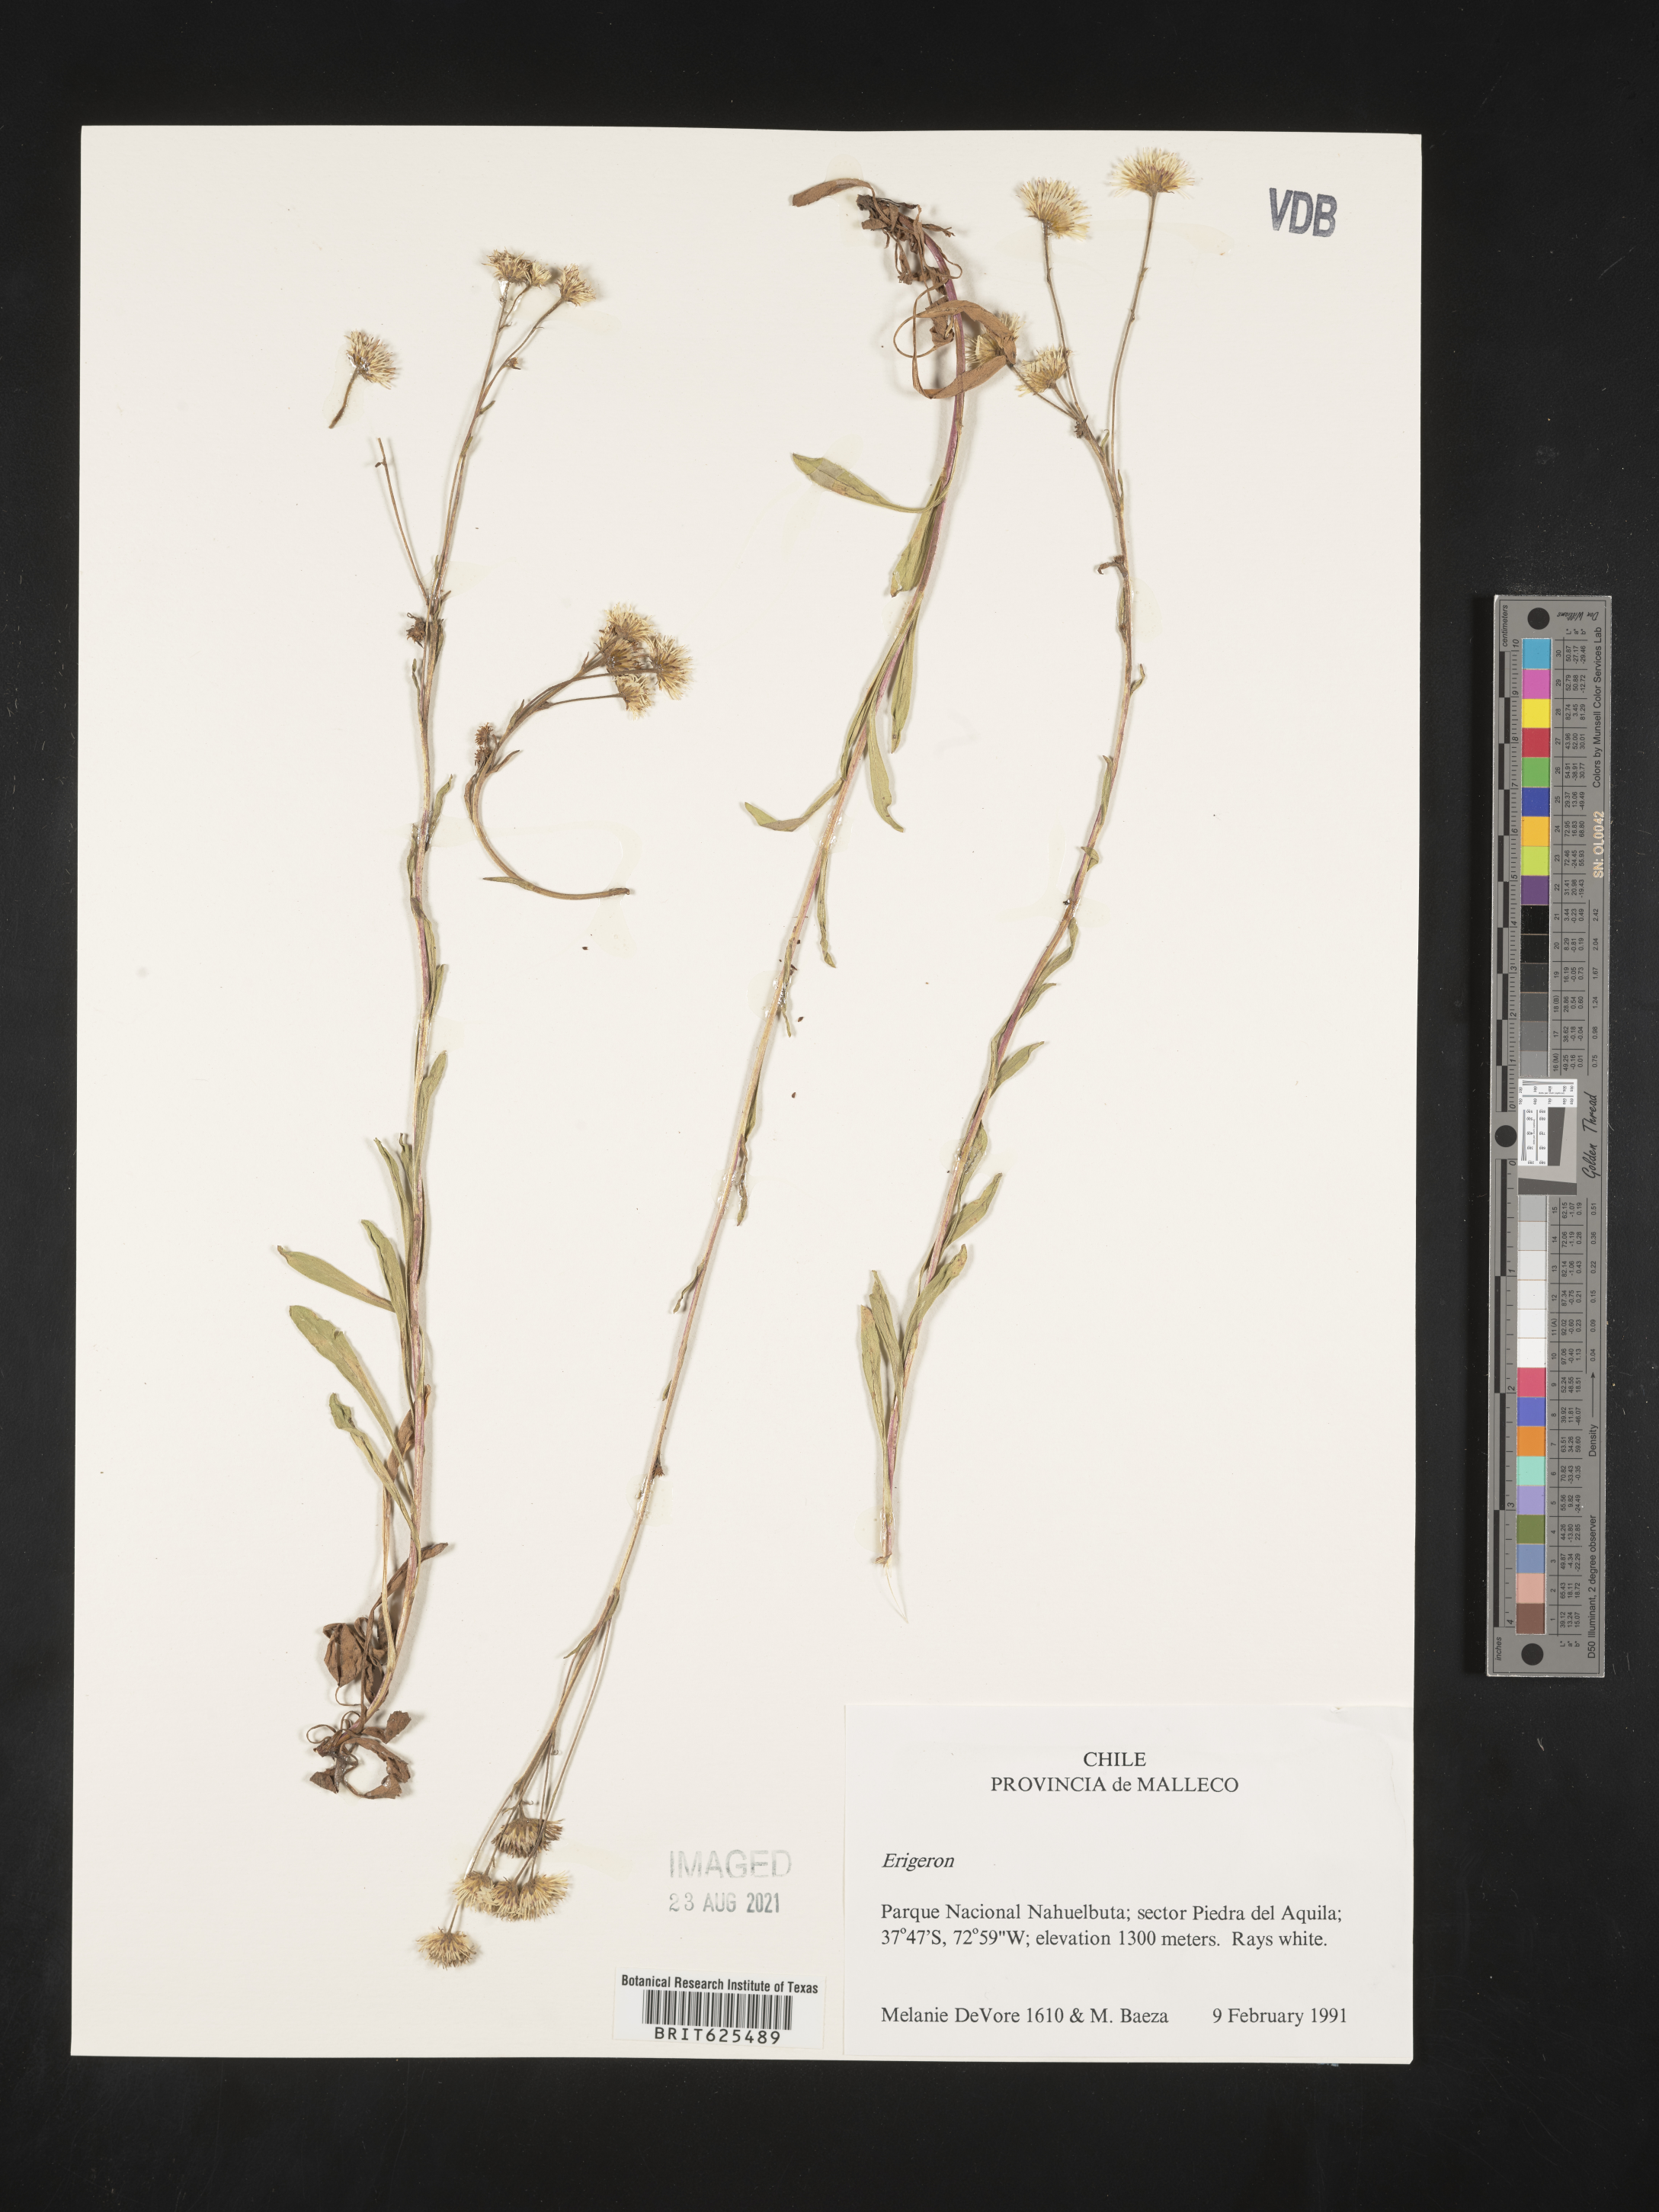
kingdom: Plantae
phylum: Tracheophyta
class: Magnoliopsida
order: Asterales
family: Asteraceae
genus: Erigeron
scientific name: Erigeron
